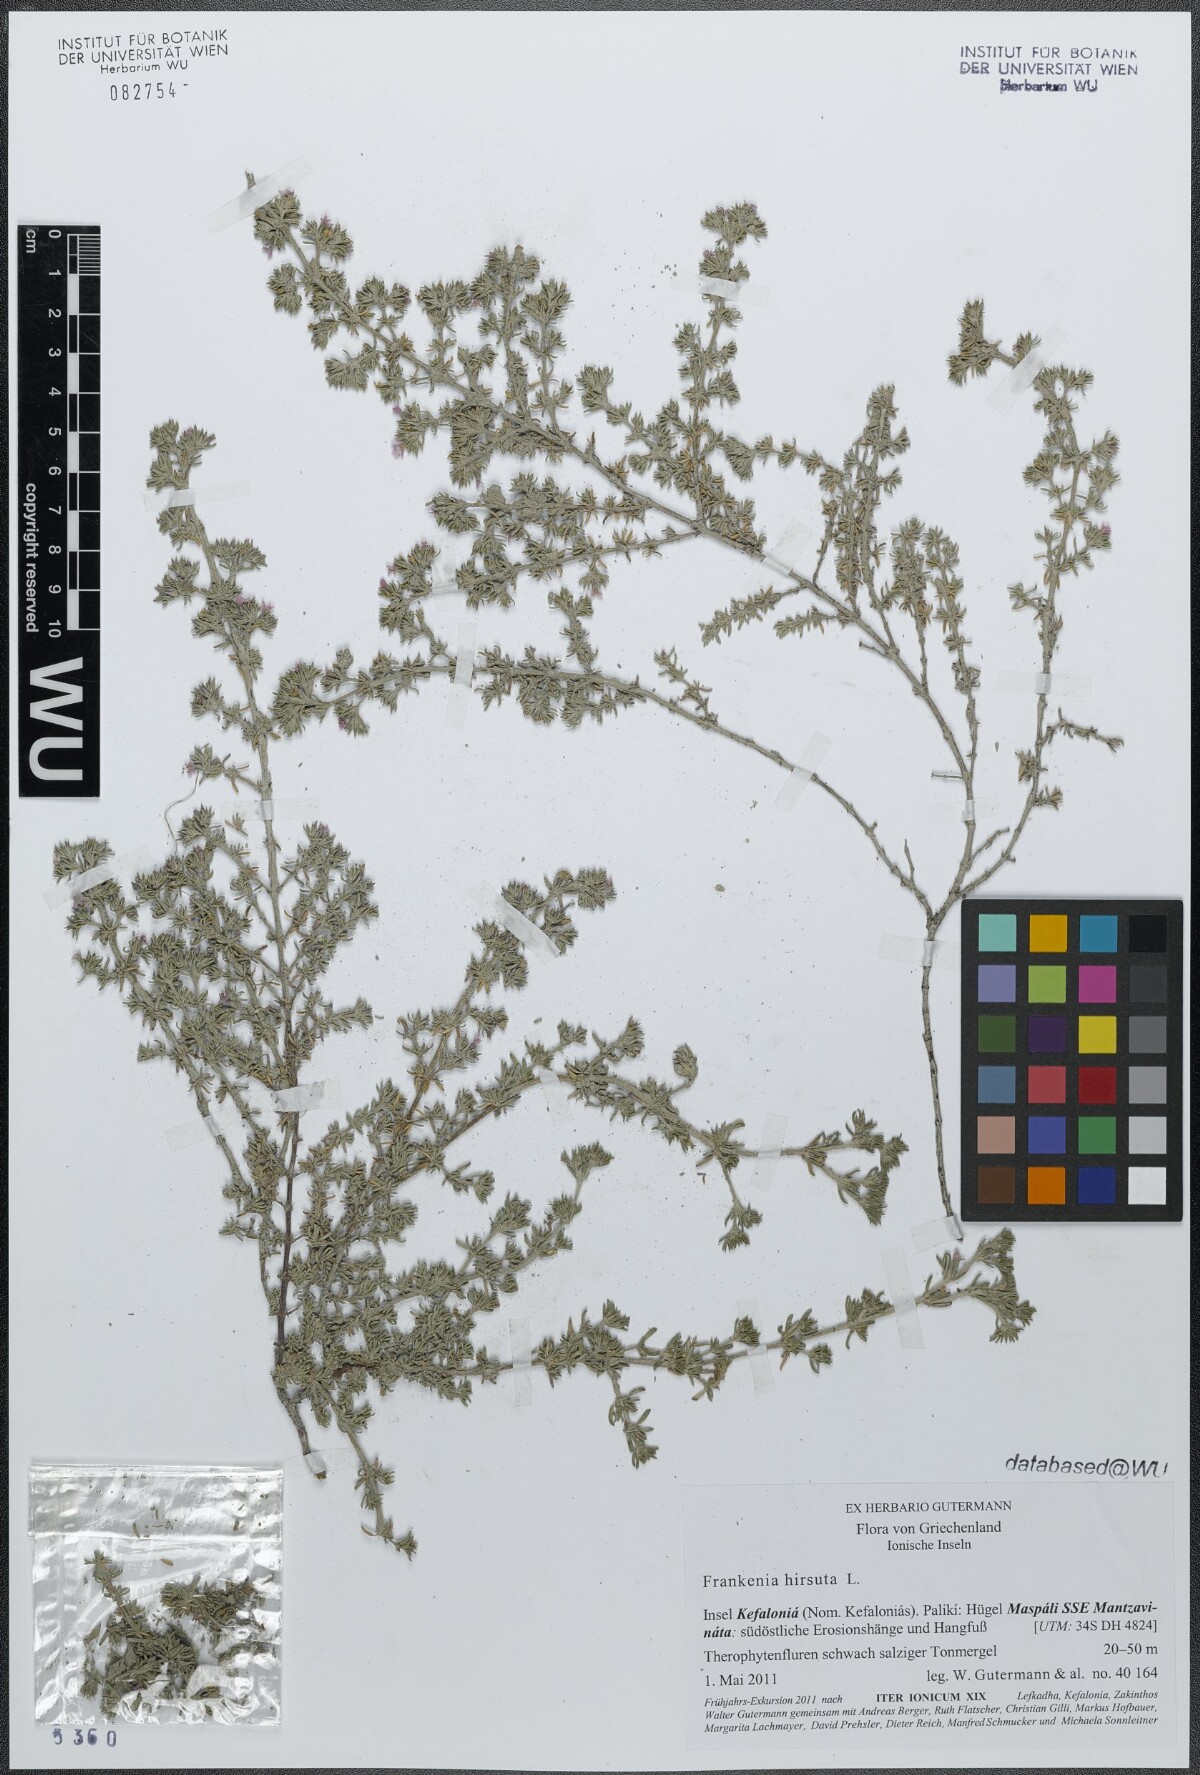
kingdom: Plantae
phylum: Tracheophyta
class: Magnoliopsida
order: Caryophyllales
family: Frankeniaceae
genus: Frankenia
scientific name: Frankenia hirsuta
